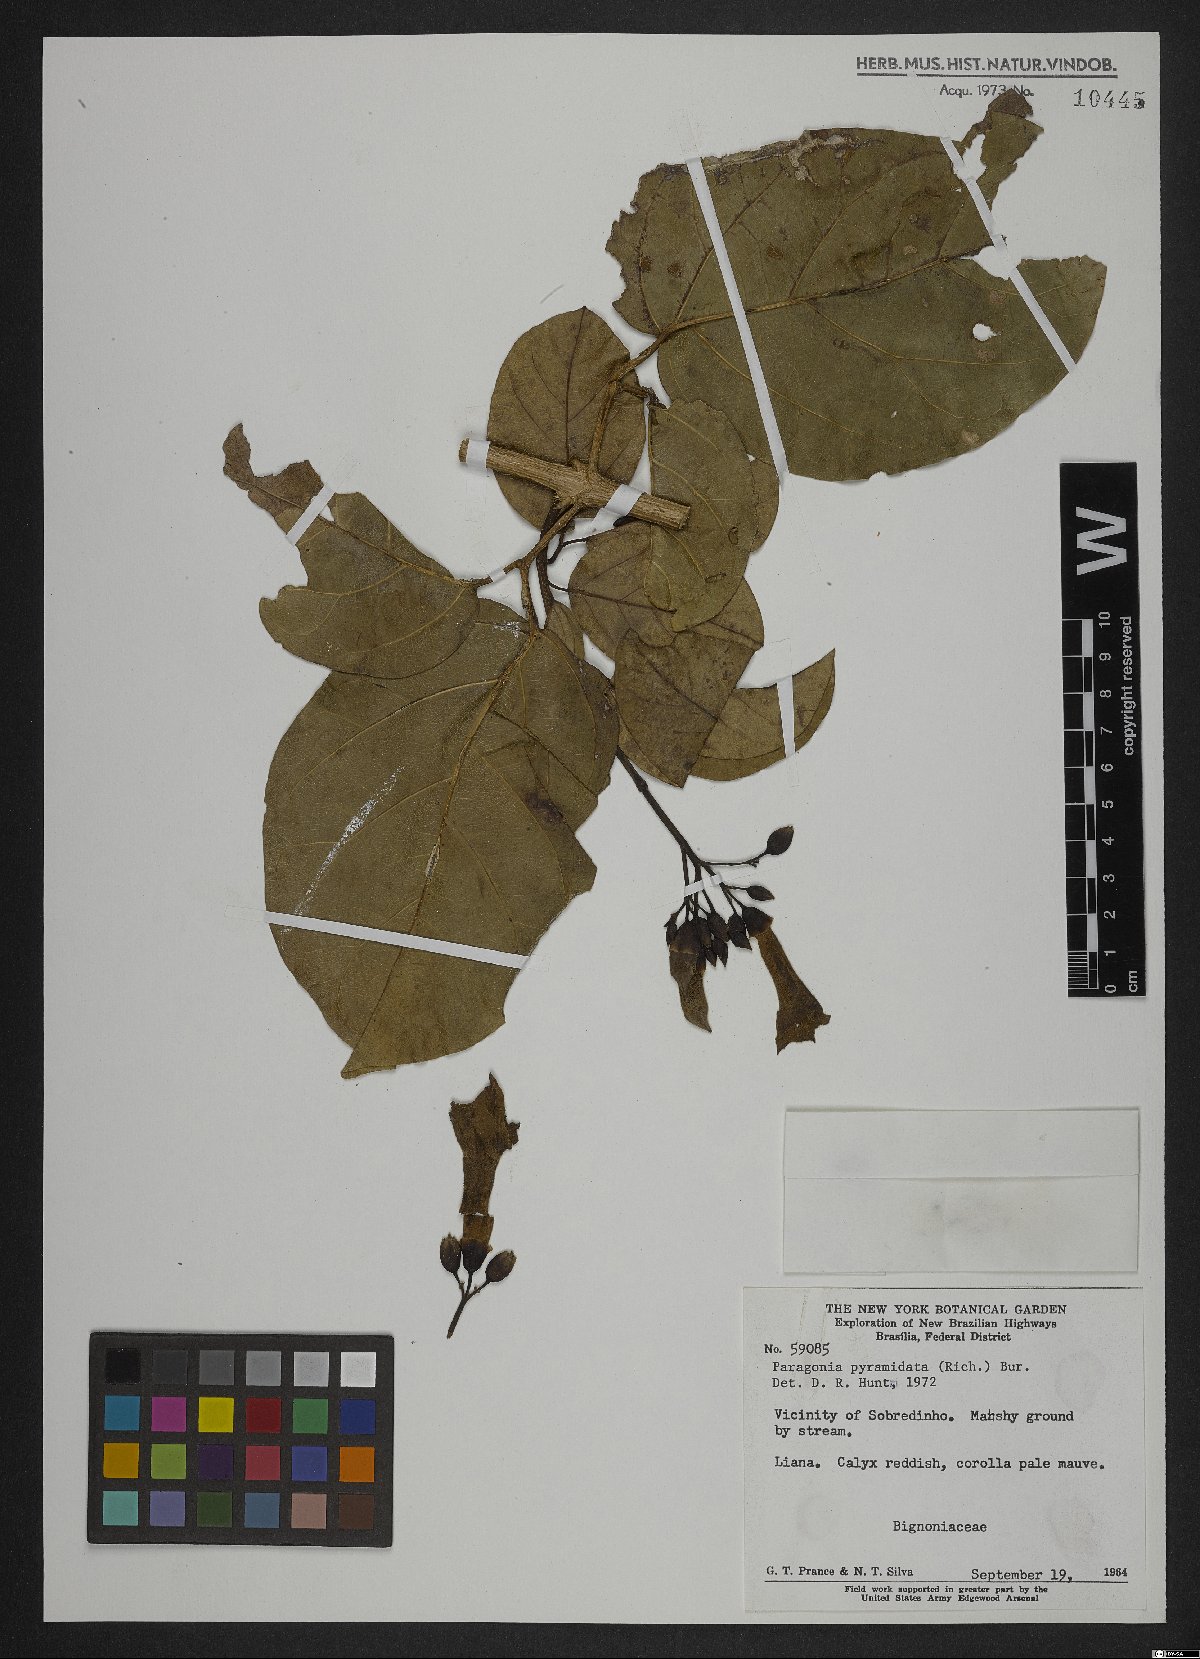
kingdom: Plantae
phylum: Tracheophyta
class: Magnoliopsida
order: Lamiales
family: Bignoniaceae
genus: Tanaecium
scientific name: Tanaecium pyramidatum
